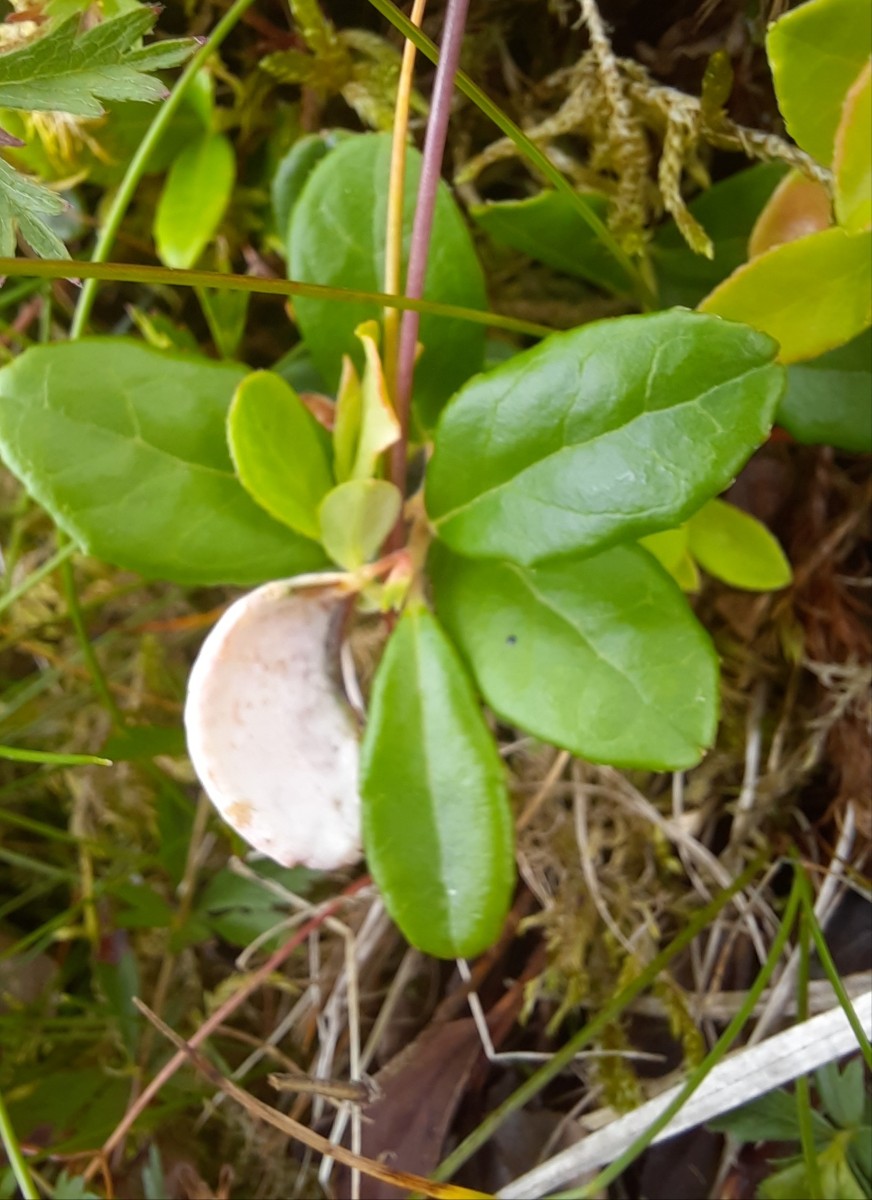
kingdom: Fungi
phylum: Basidiomycota
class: Exobasidiomycetes
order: Exobasidiales
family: Exobasidiaceae
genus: Exobasidium
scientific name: Exobasidium vaccinii
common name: tyttebærblad-bøllesvamp
